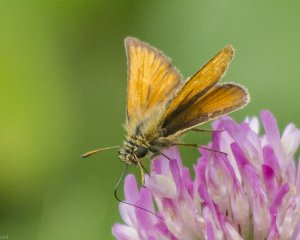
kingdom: Animalia
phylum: Arthropoda
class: Insecta
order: Lepidoptera
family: Hesperiidae
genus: Thymelicus
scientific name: Thymelicus lineola
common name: European Skipper
